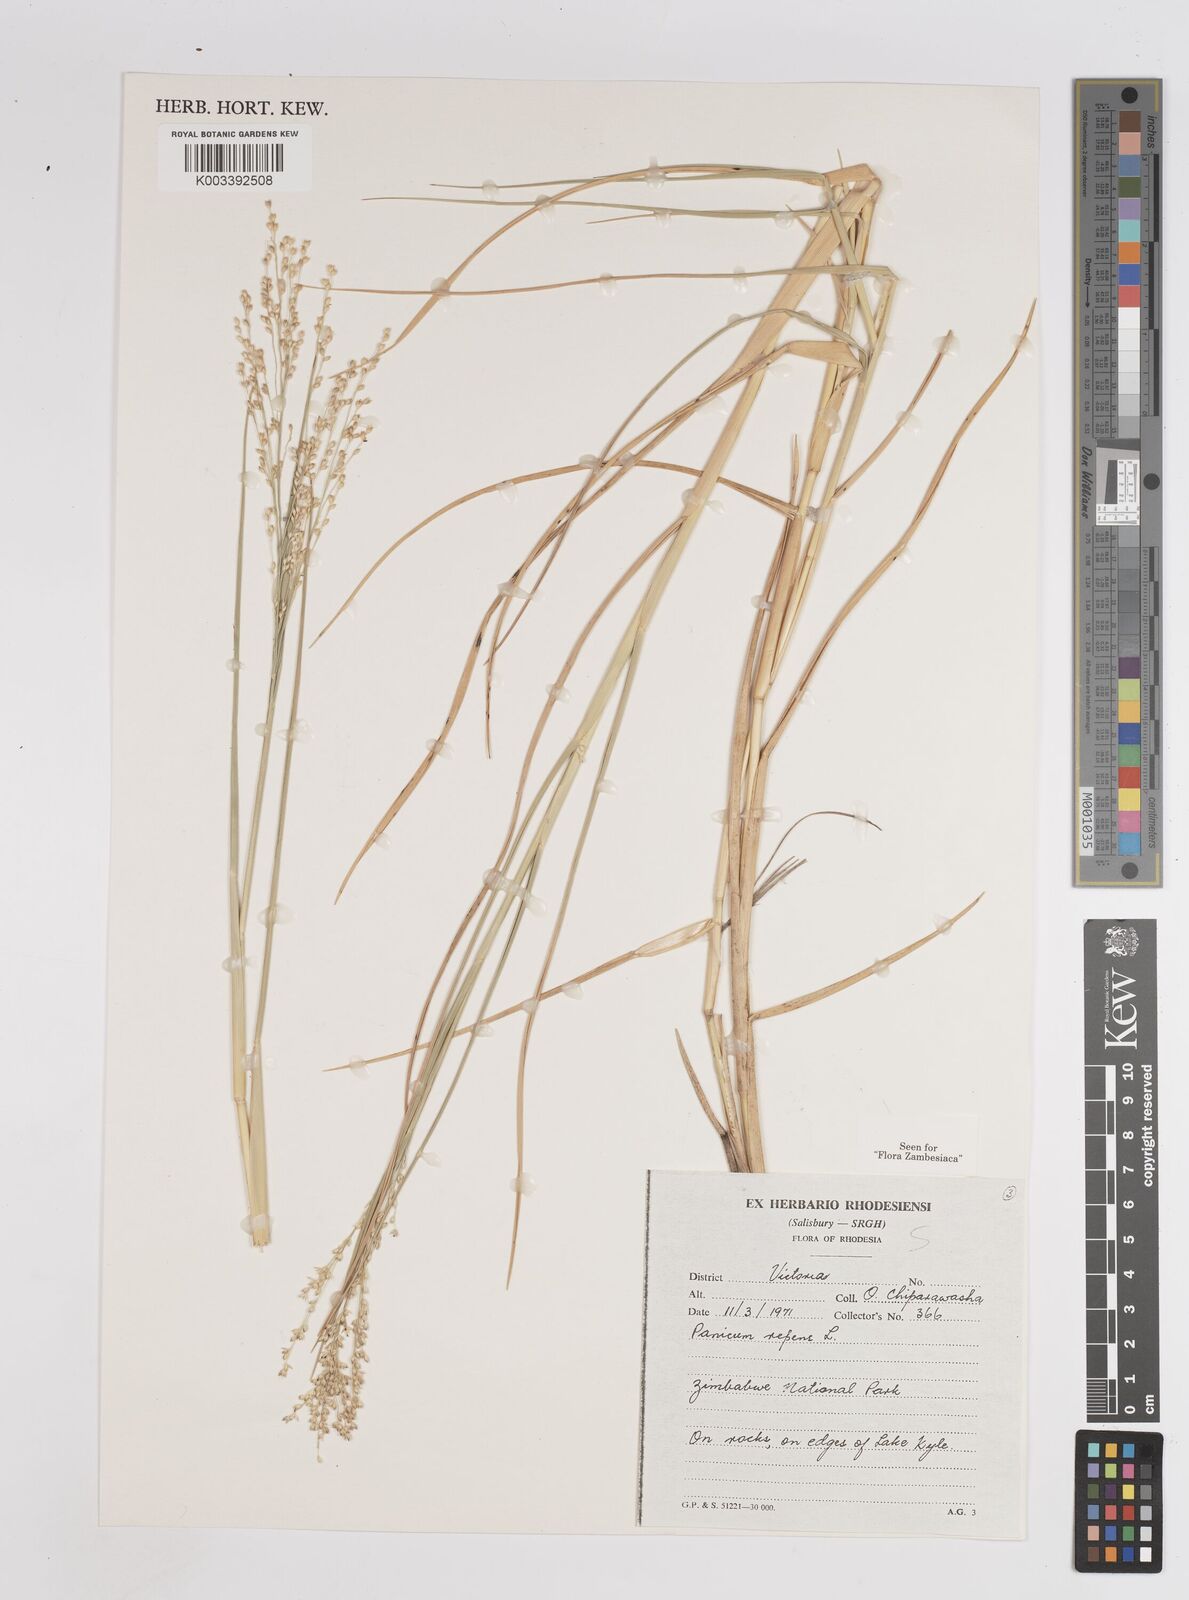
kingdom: Plantae
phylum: Tracheophyta
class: Liliopsida
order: Poales
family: Poaceae
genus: Panicum
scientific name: Panicum repens
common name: Torpedo grass
